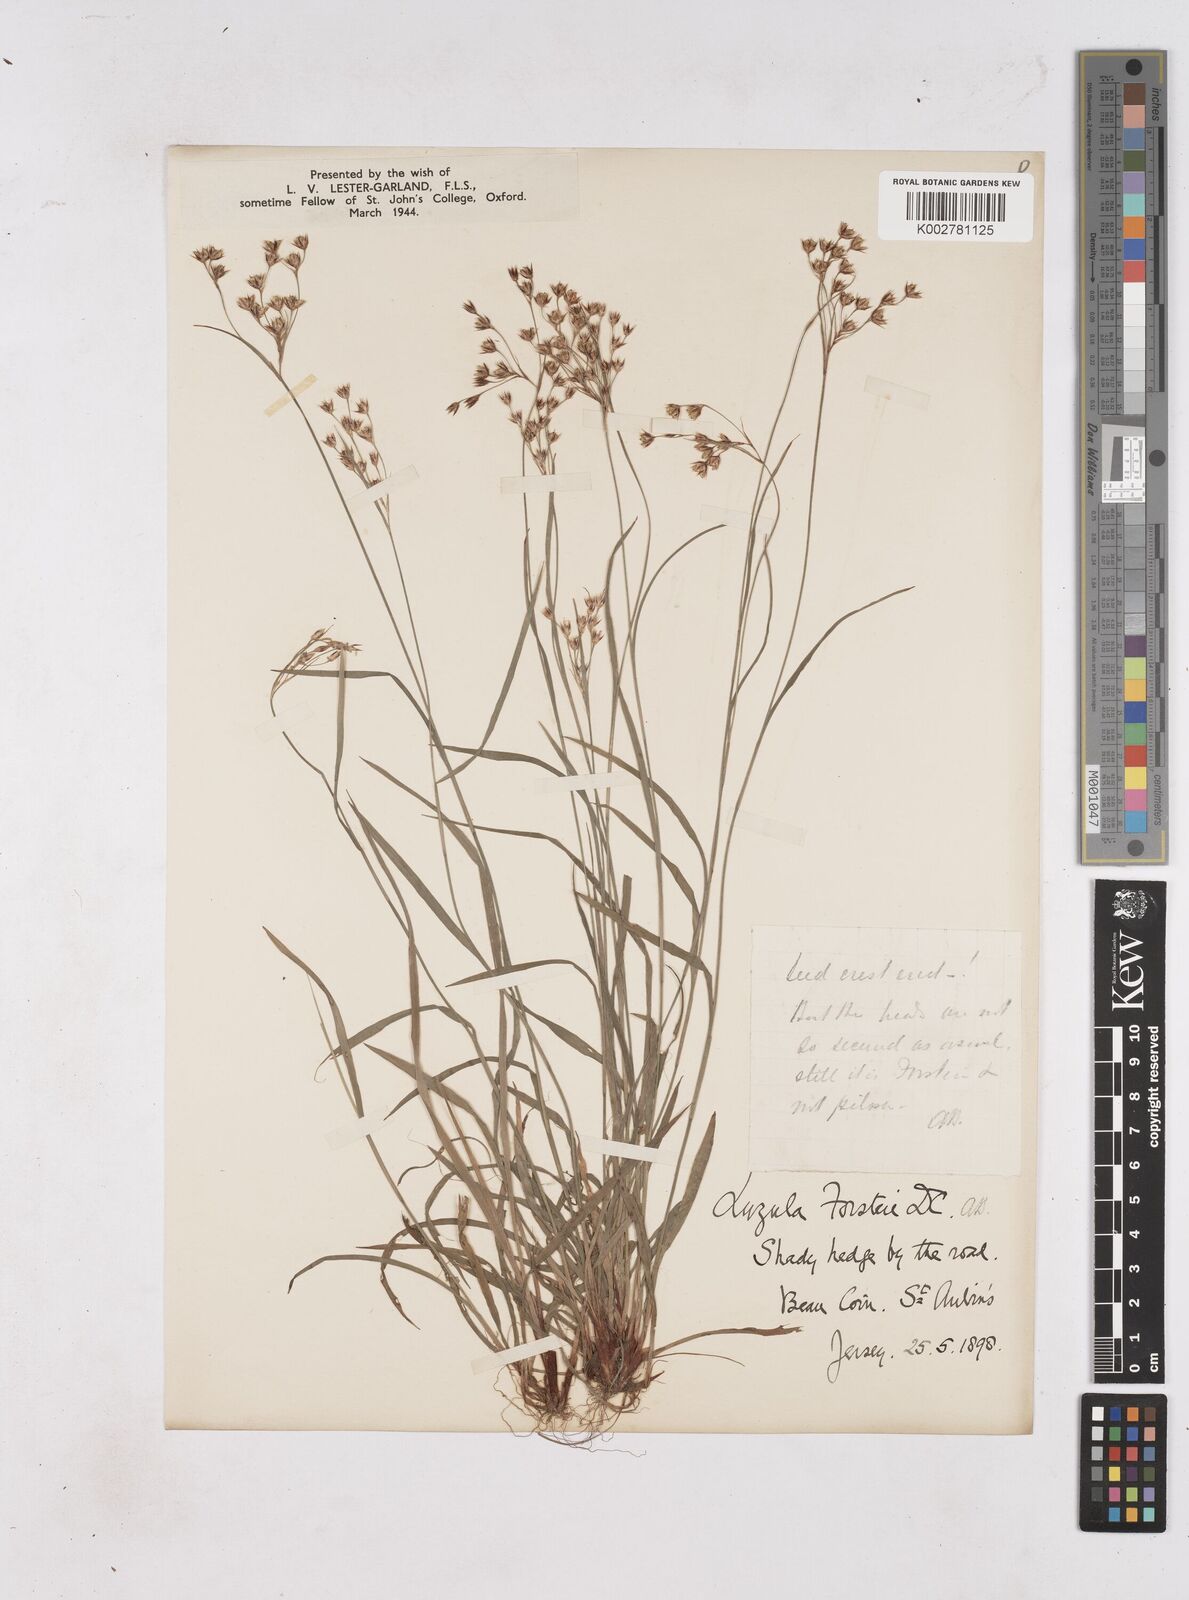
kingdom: Plantae
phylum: Tracheophyta
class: Liliopsida
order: Poales
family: Juncaceae
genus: Luzula
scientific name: Luzula forsteri
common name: Southern wood-rush
